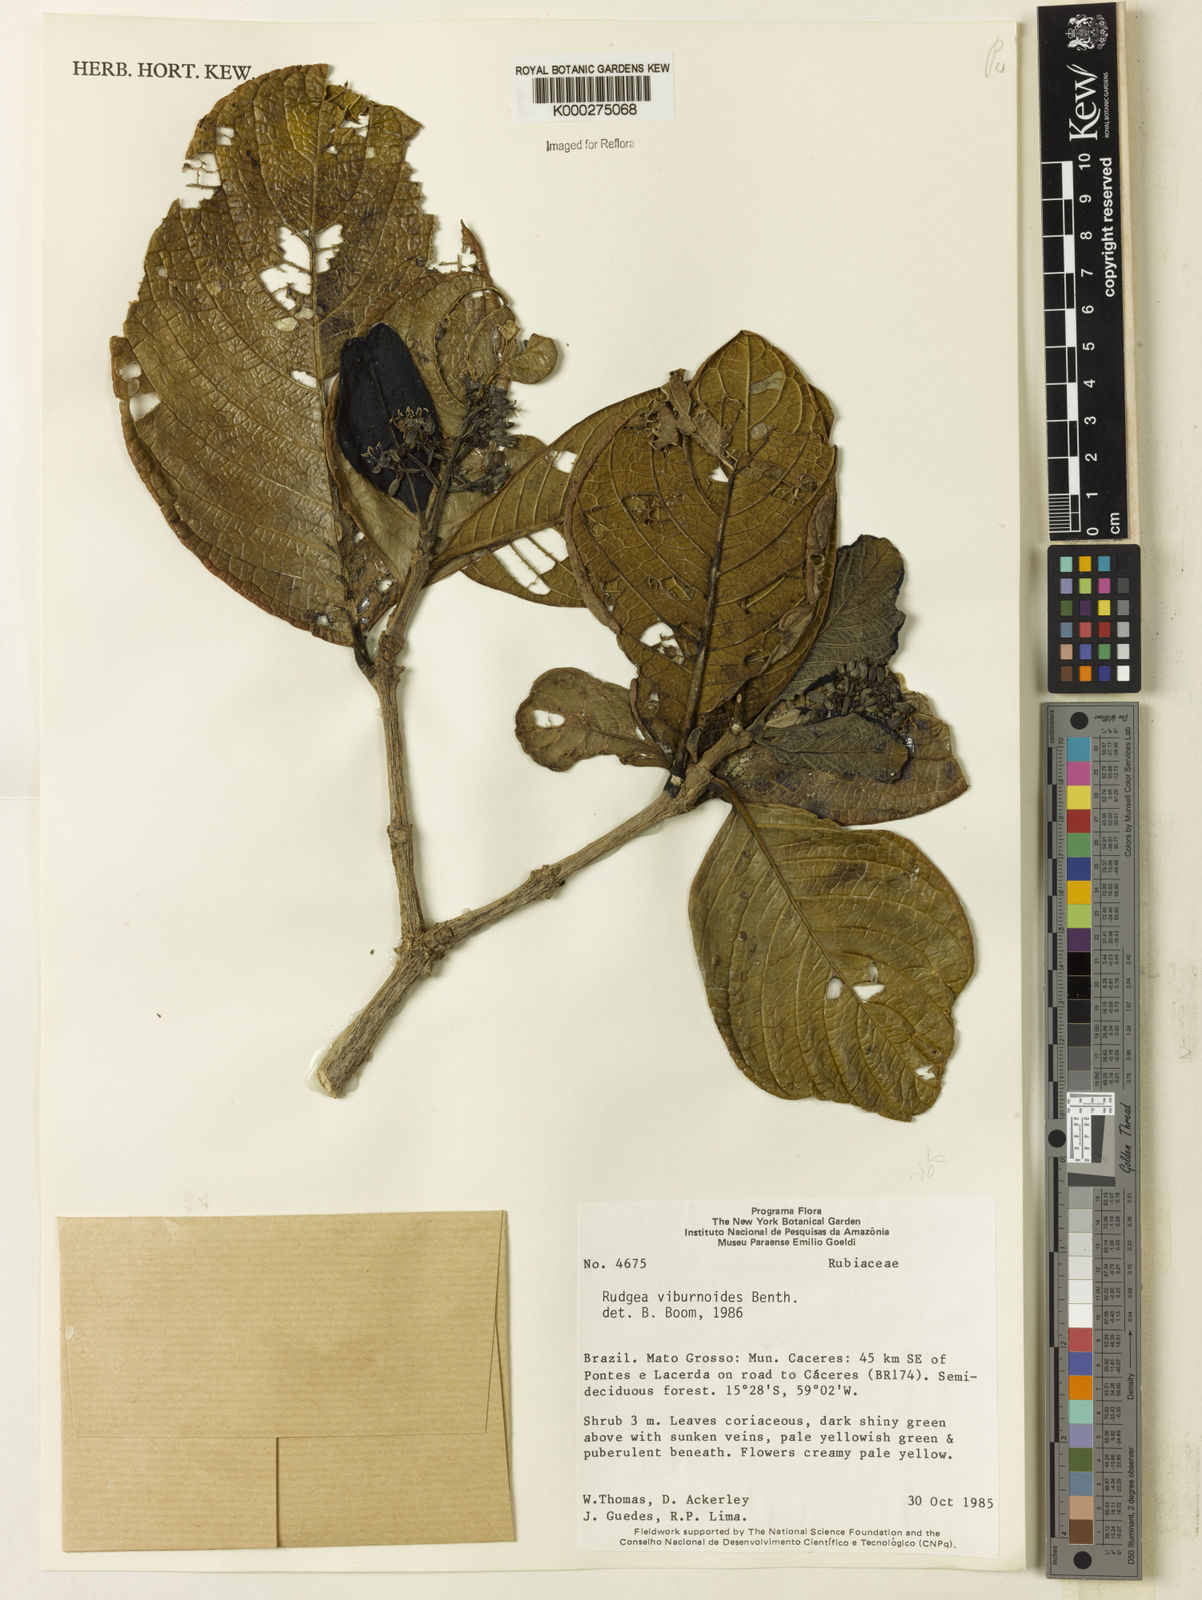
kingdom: Plantae
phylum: Tracheophyta
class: Magnoliopsida
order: Gentianales
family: Rubiaceae
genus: Rudgea
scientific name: Rudgea viburnoides
